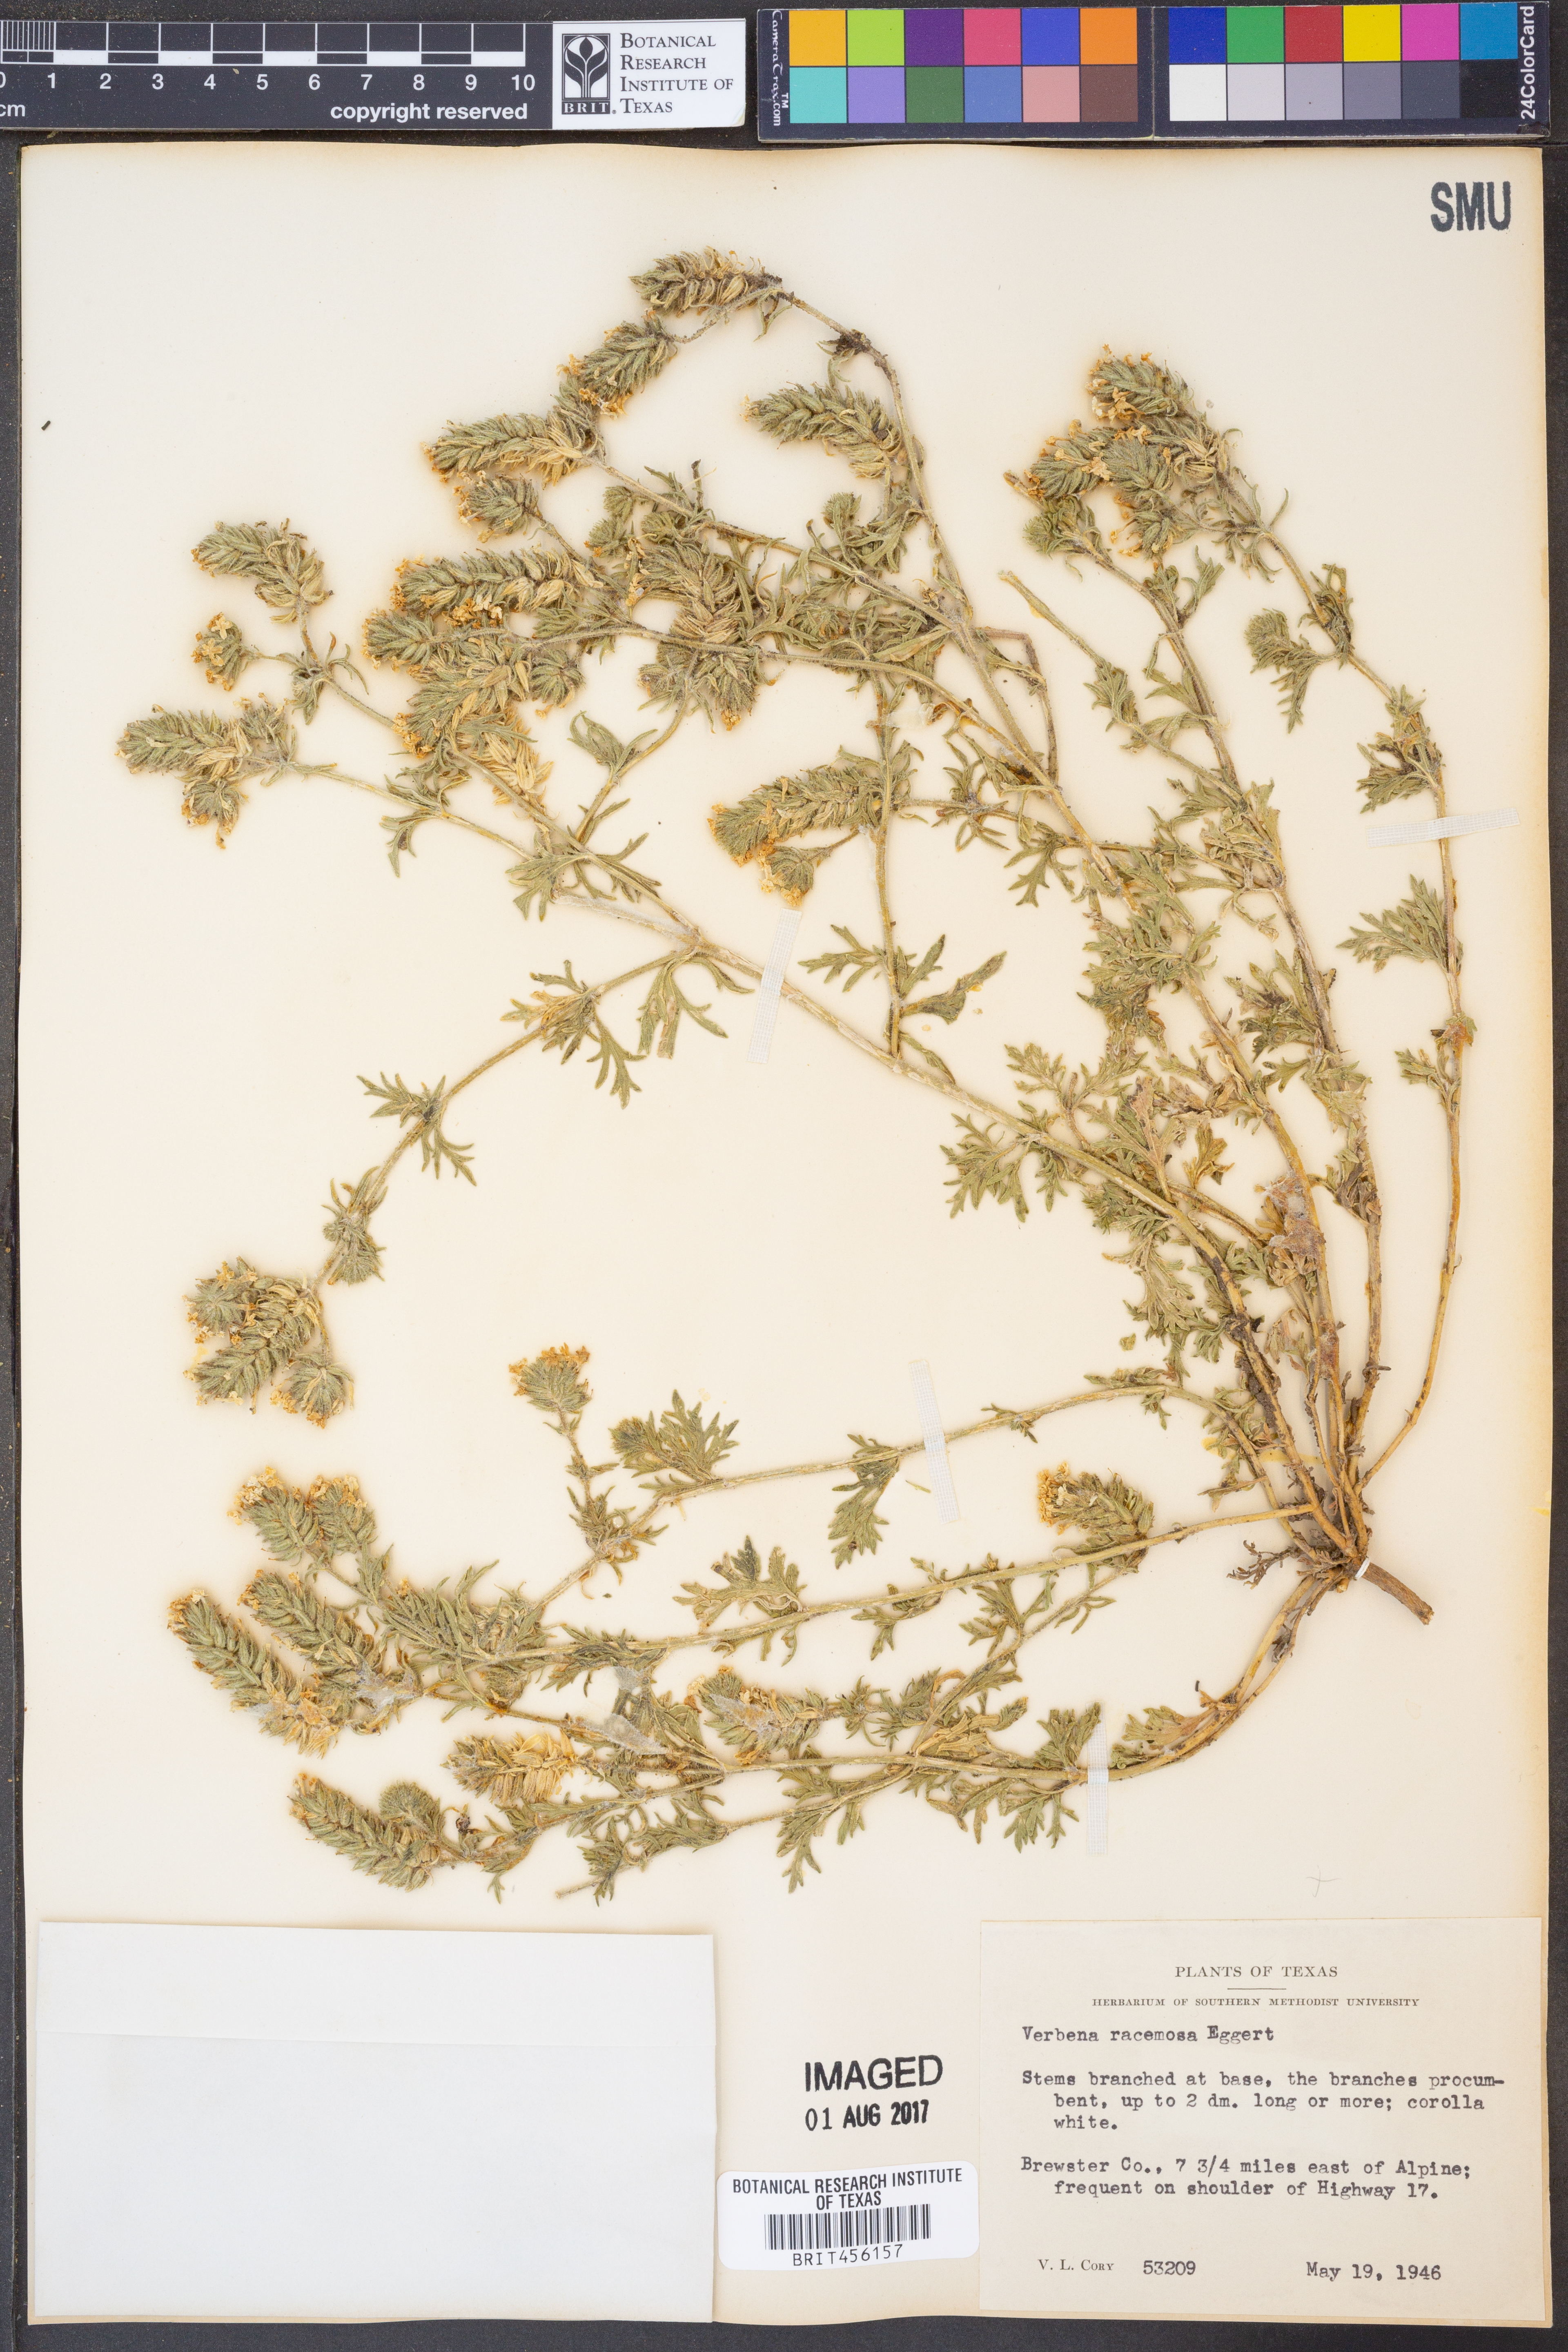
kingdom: Plantae
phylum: Tracheophyta
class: Magnoliopsida
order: Lamiales
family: Verbenaceae
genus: Verbena
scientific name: Verbena racemosa
